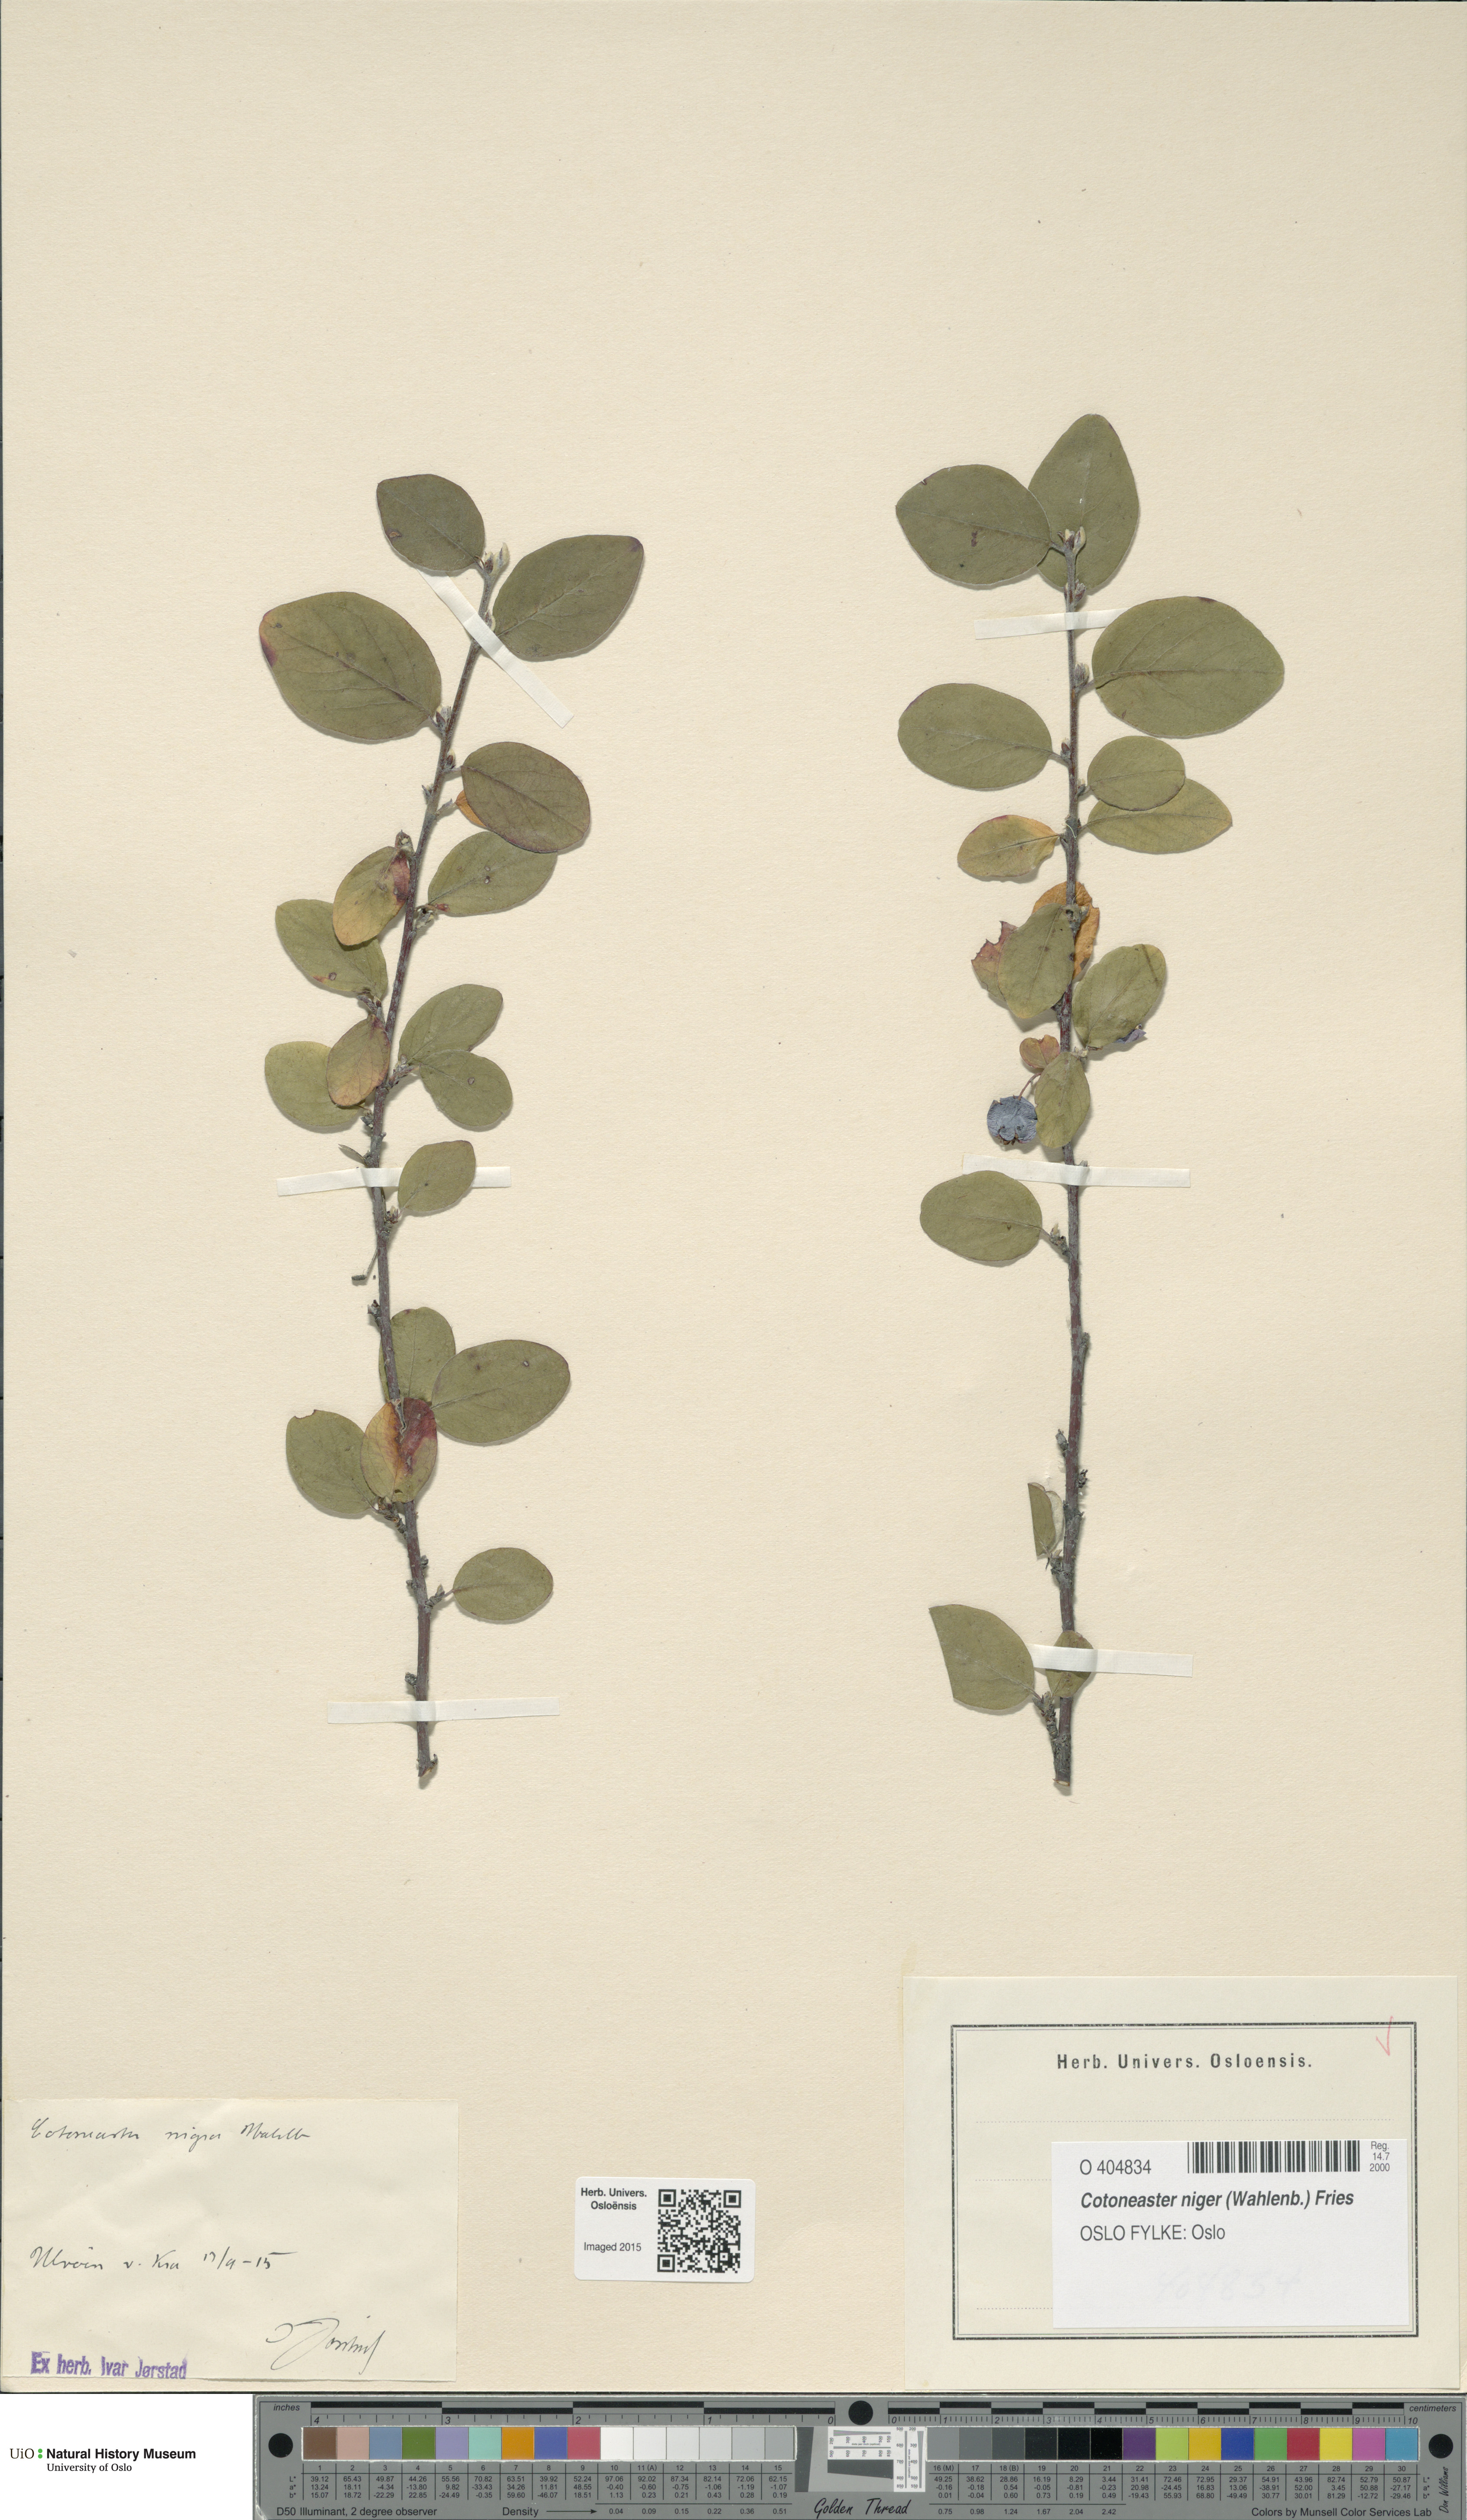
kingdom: Plantae
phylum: Tracheophyta
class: Magnoliopsida
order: Rosales
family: Rosaceae
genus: Cotoneaster
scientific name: Cotoneaster niger
